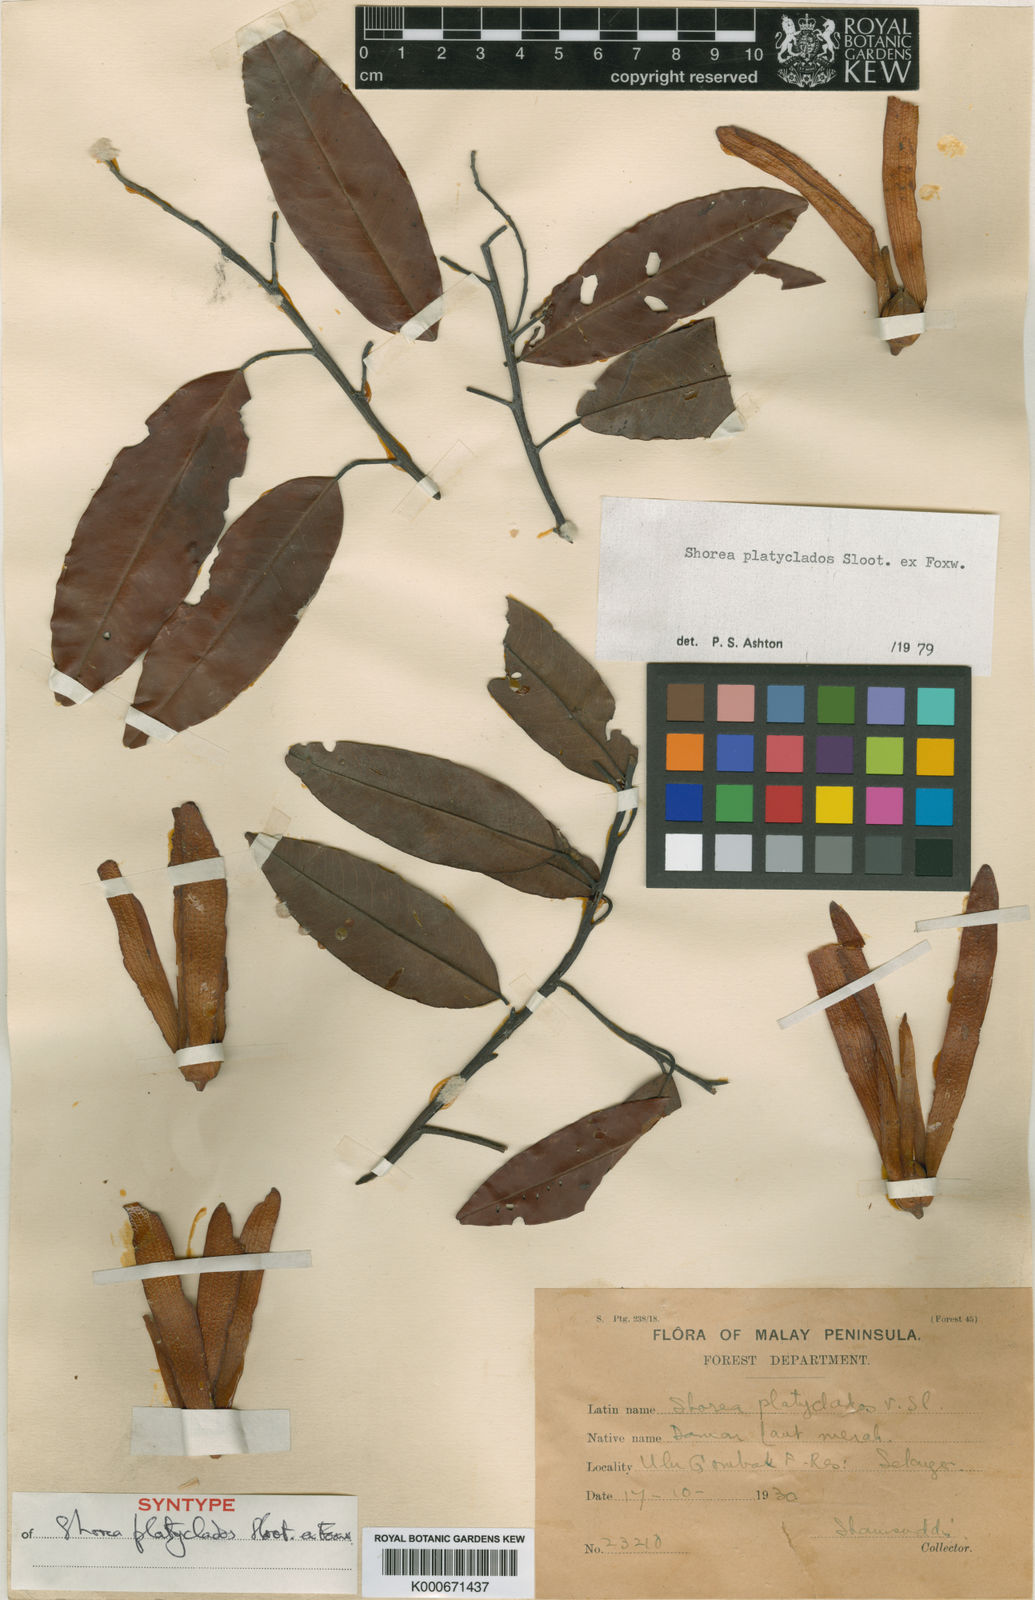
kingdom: Plantae
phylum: Tracheophyta
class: Magnoliopsida
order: Malvales
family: Dipterocarpaceae
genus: Shorea
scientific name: Shorea
